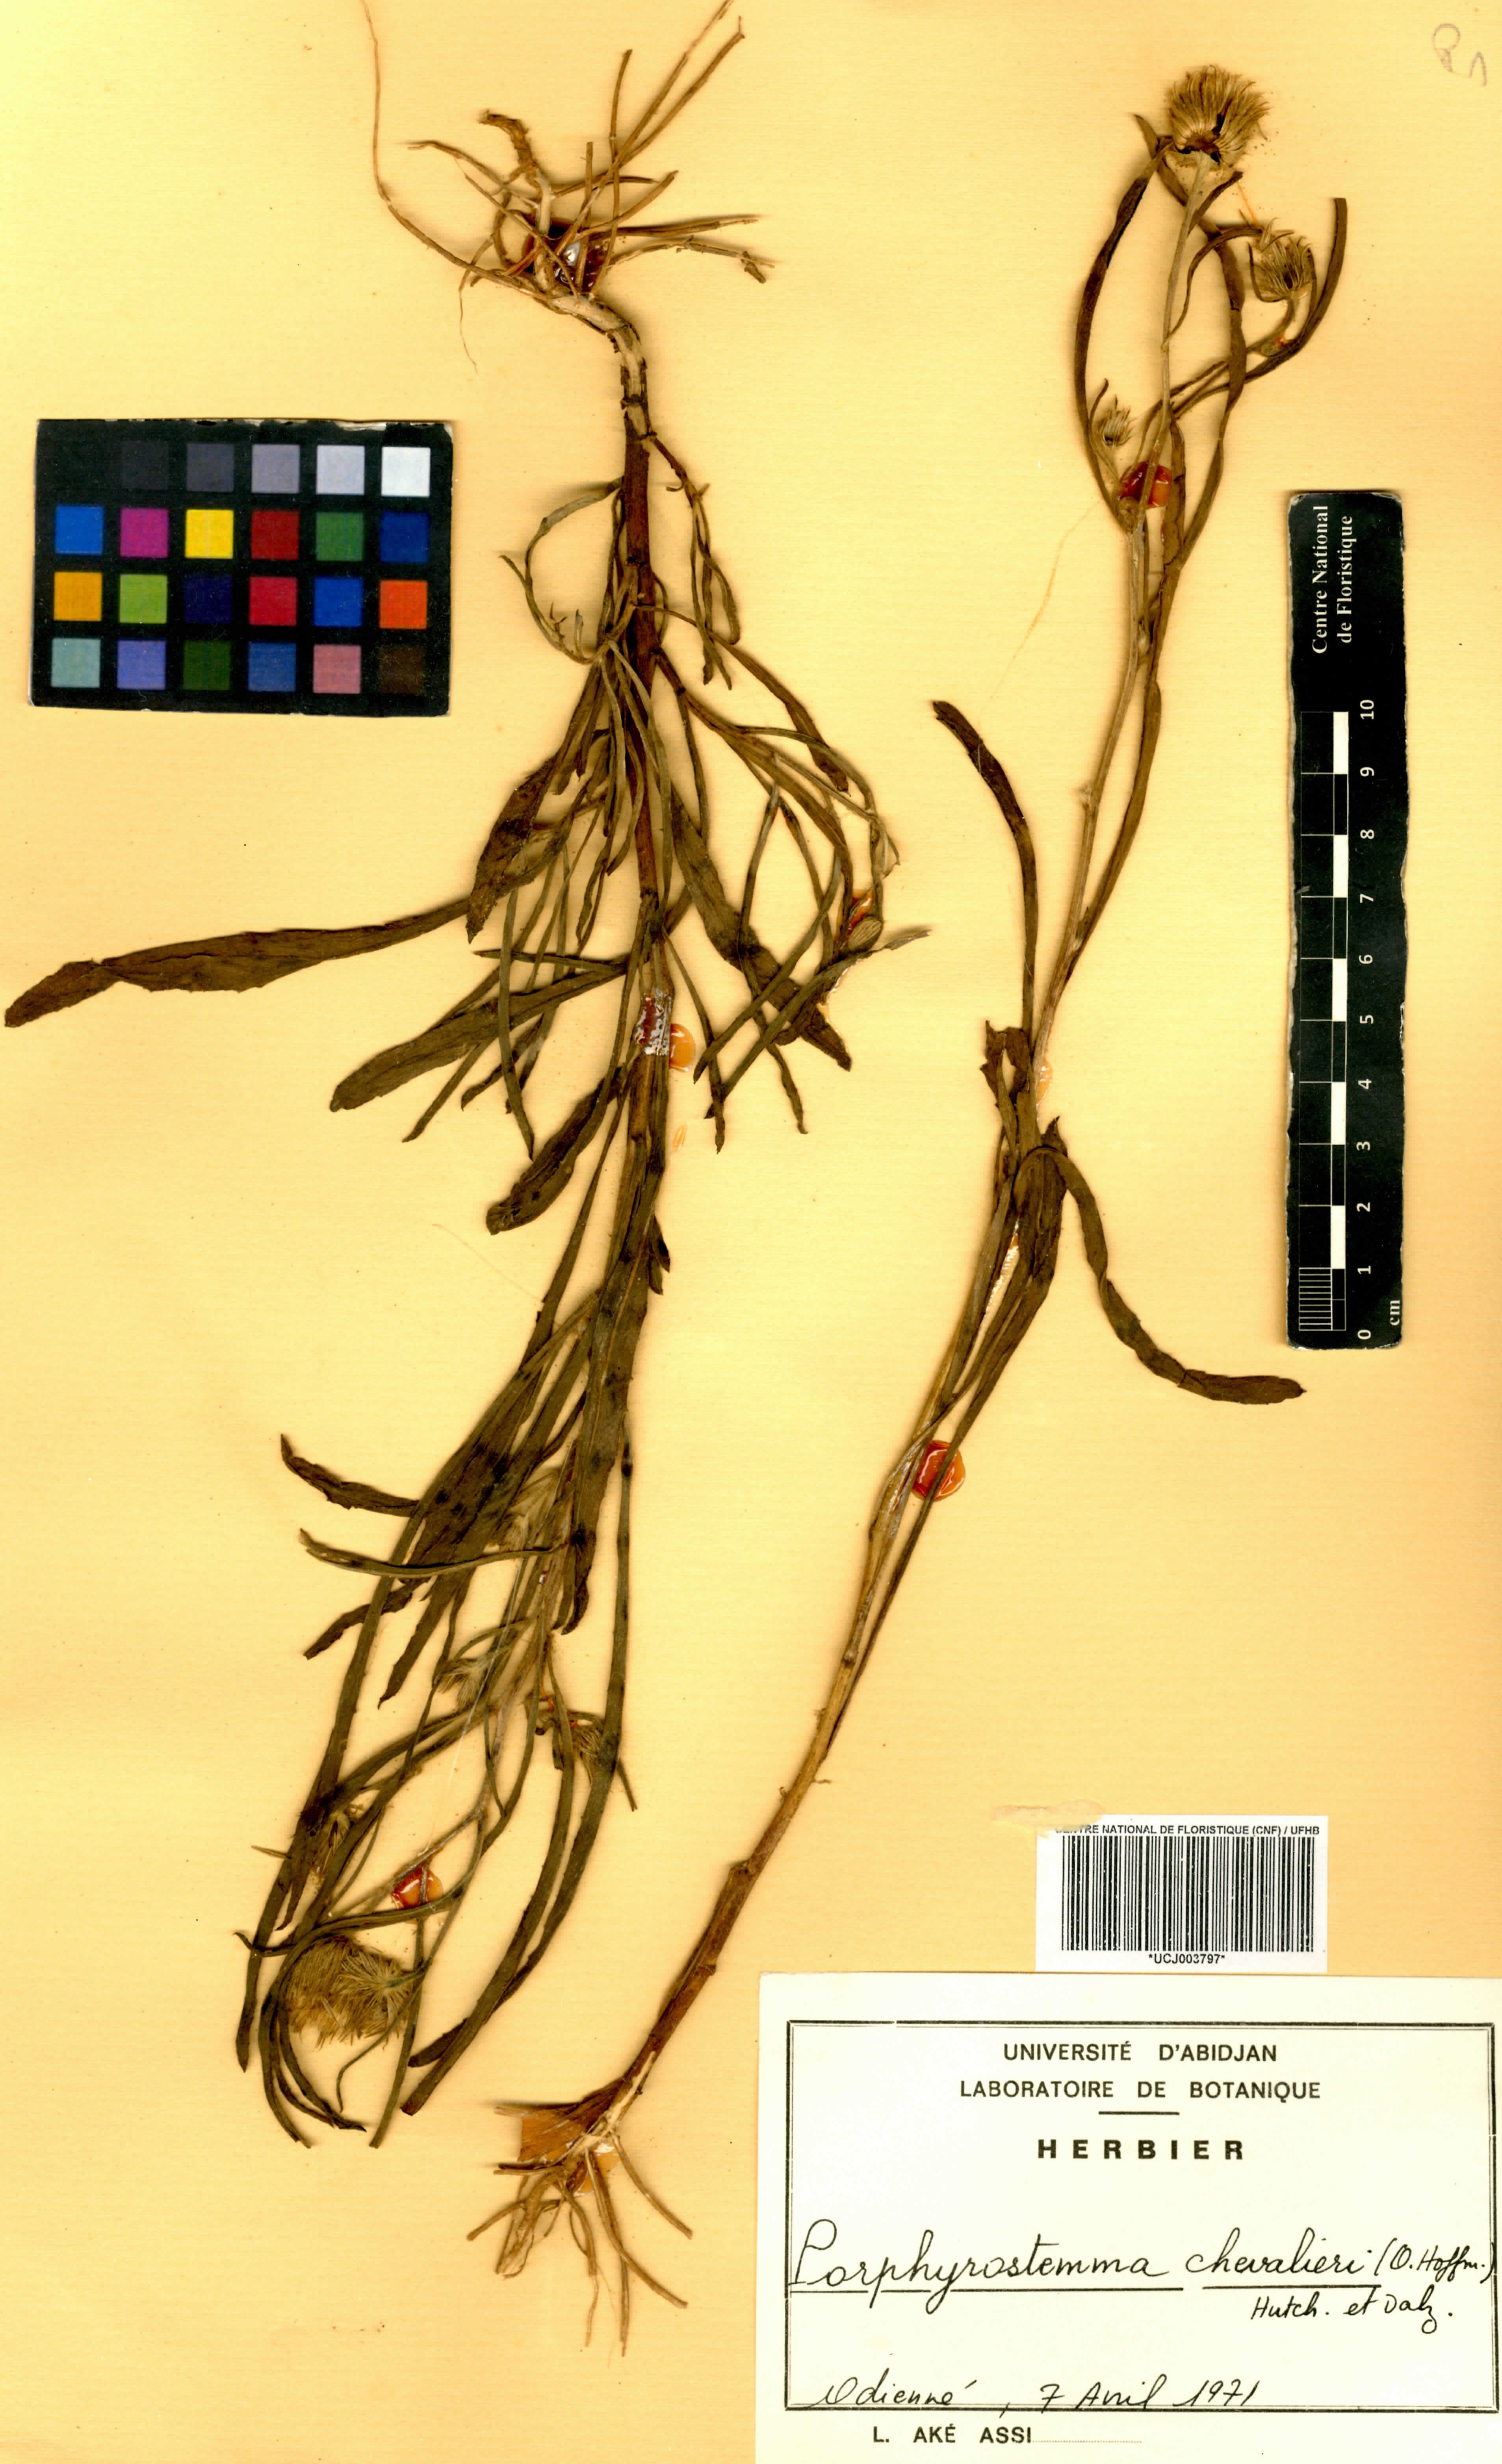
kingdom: Plantae
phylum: Tracheophyta
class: Magnoliopsida
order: Asterales
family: Asteraceae
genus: Porphyrostemma
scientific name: Porphyrostemma chevalieri
